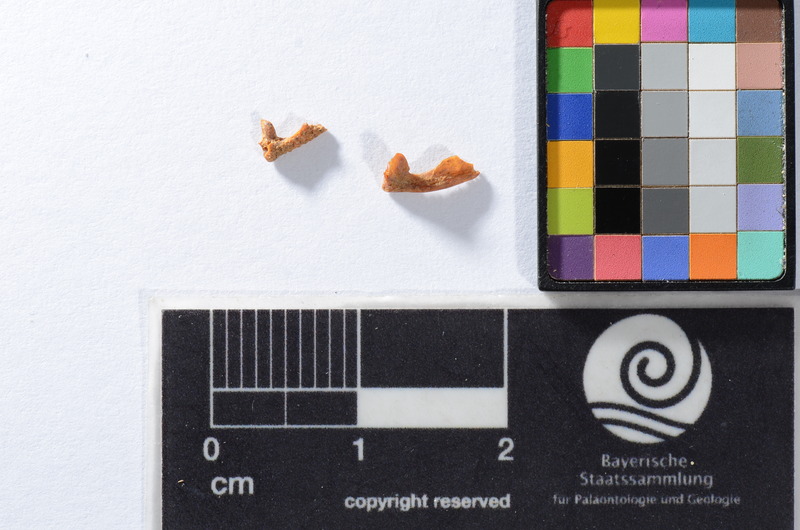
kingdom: Animalia
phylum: Chordata
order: Scorpaeniformes
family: Cottidae
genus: Cottus
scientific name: Cottus gobio
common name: Bullhead
